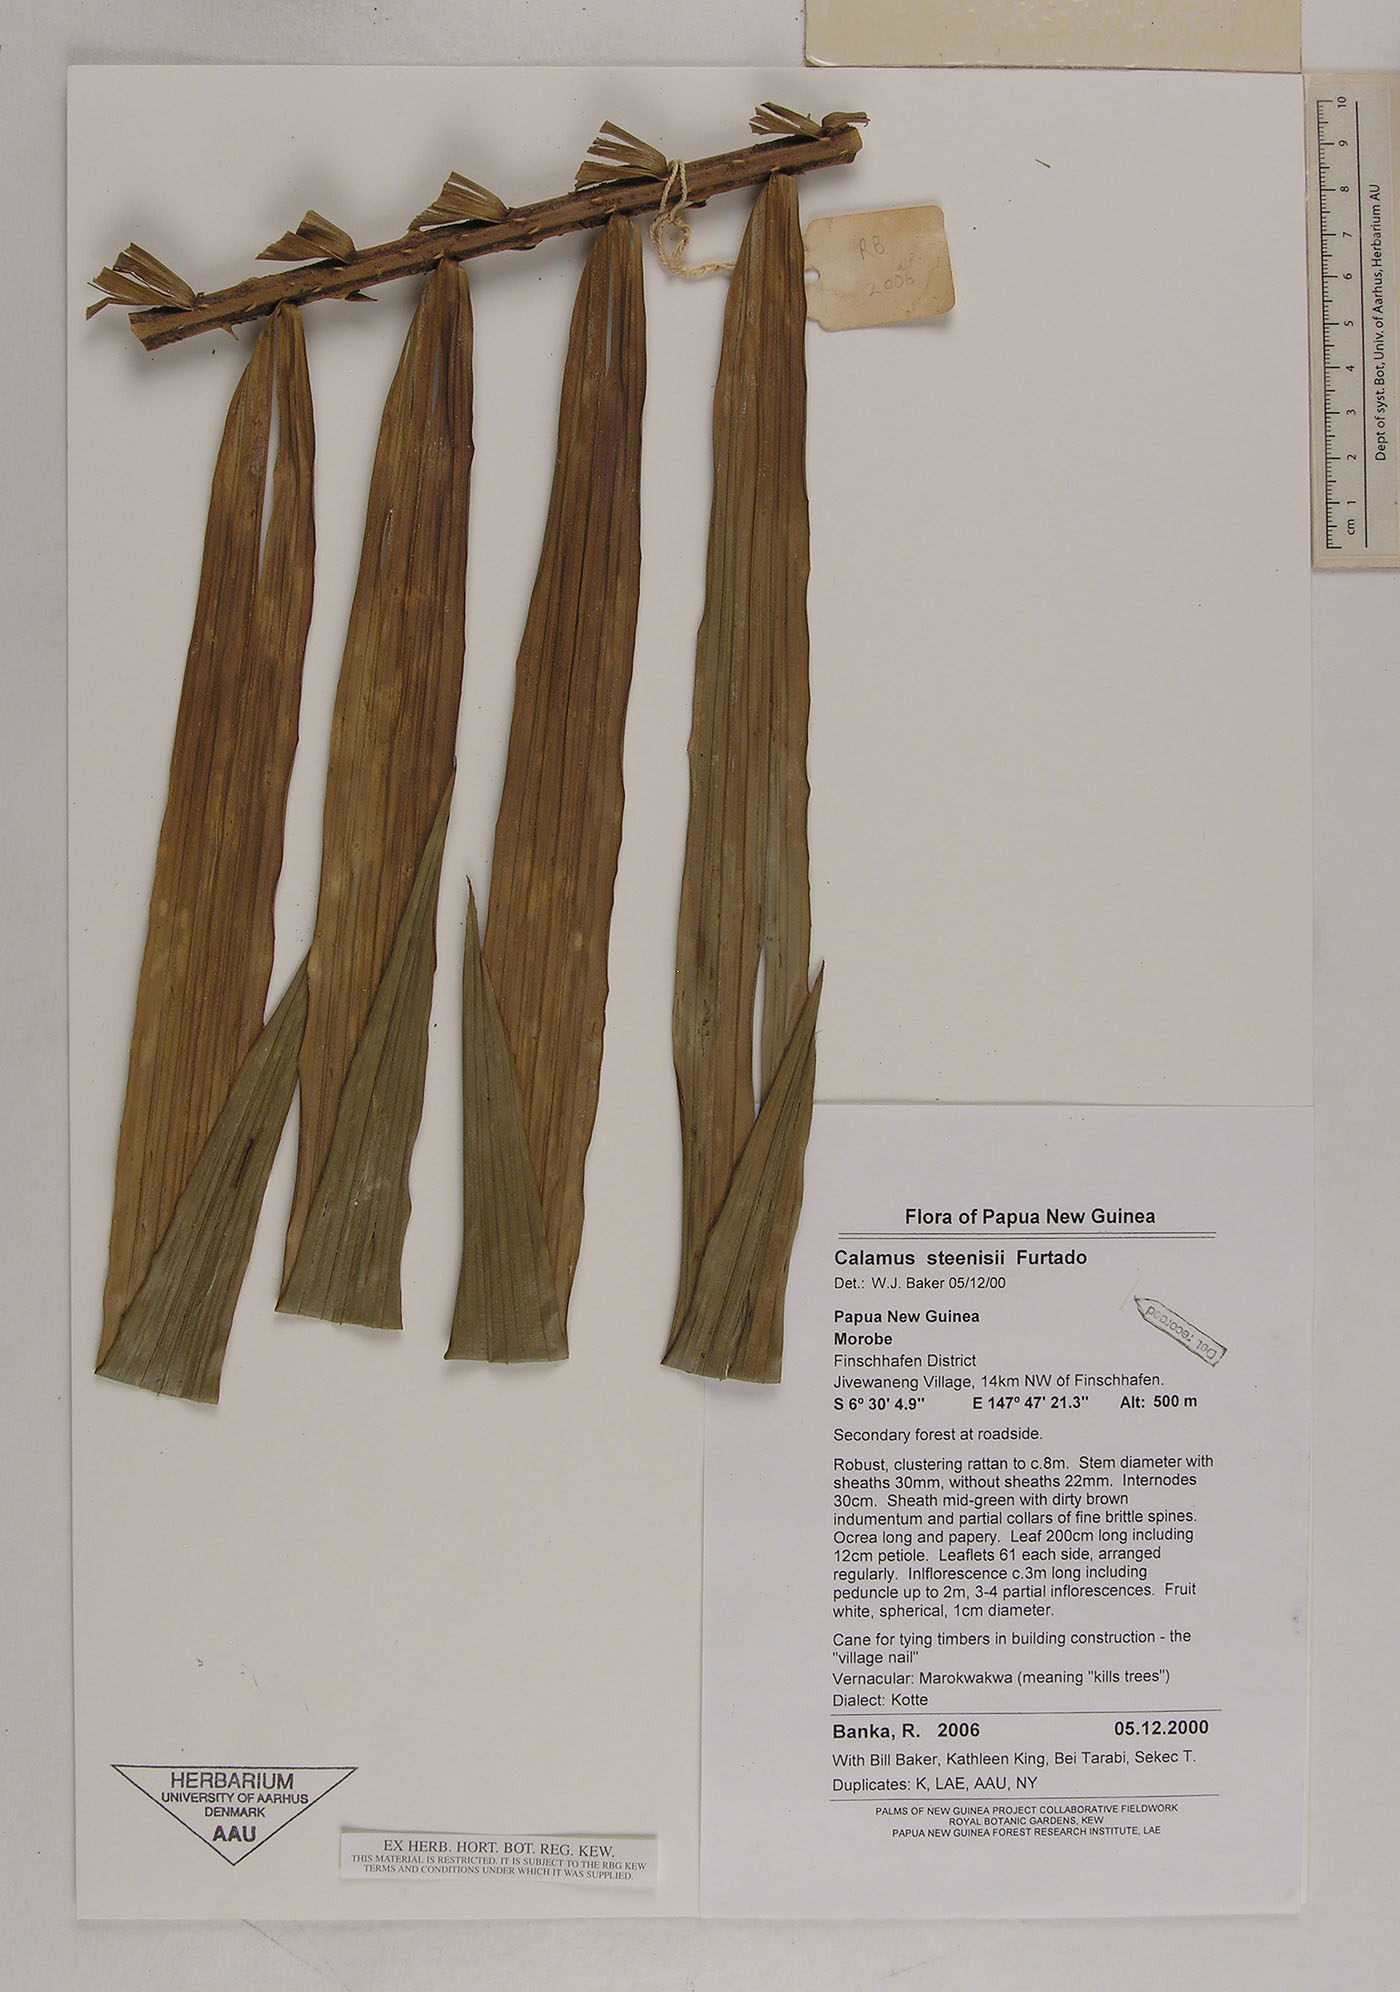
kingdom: Plantae
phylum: Tracheophyta
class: Liliopsida
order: Arecales
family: Arecaceae
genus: Calamus
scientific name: Calamus zebrinus
